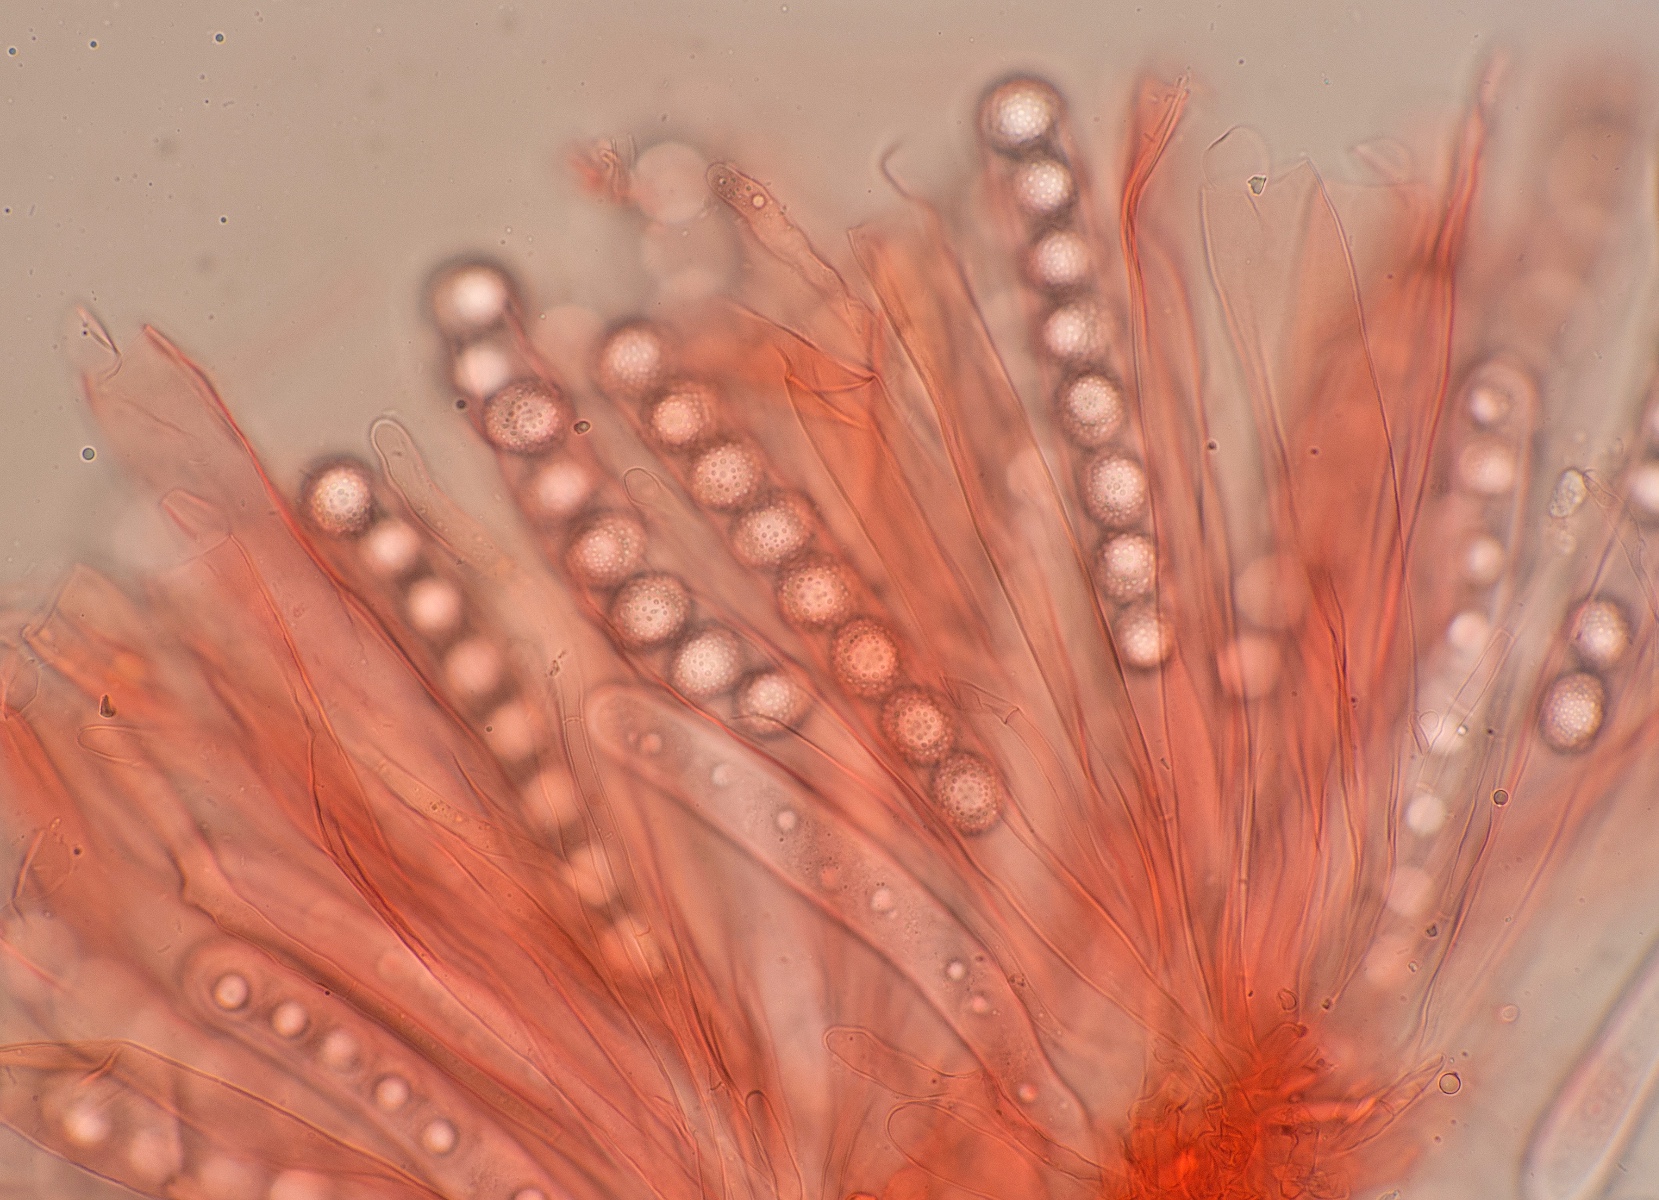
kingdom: Fungi
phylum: Ascomycota
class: Pezizomycetes
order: Pezizales
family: Pyronemataceae
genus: Octospora
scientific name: Octospora affinis
